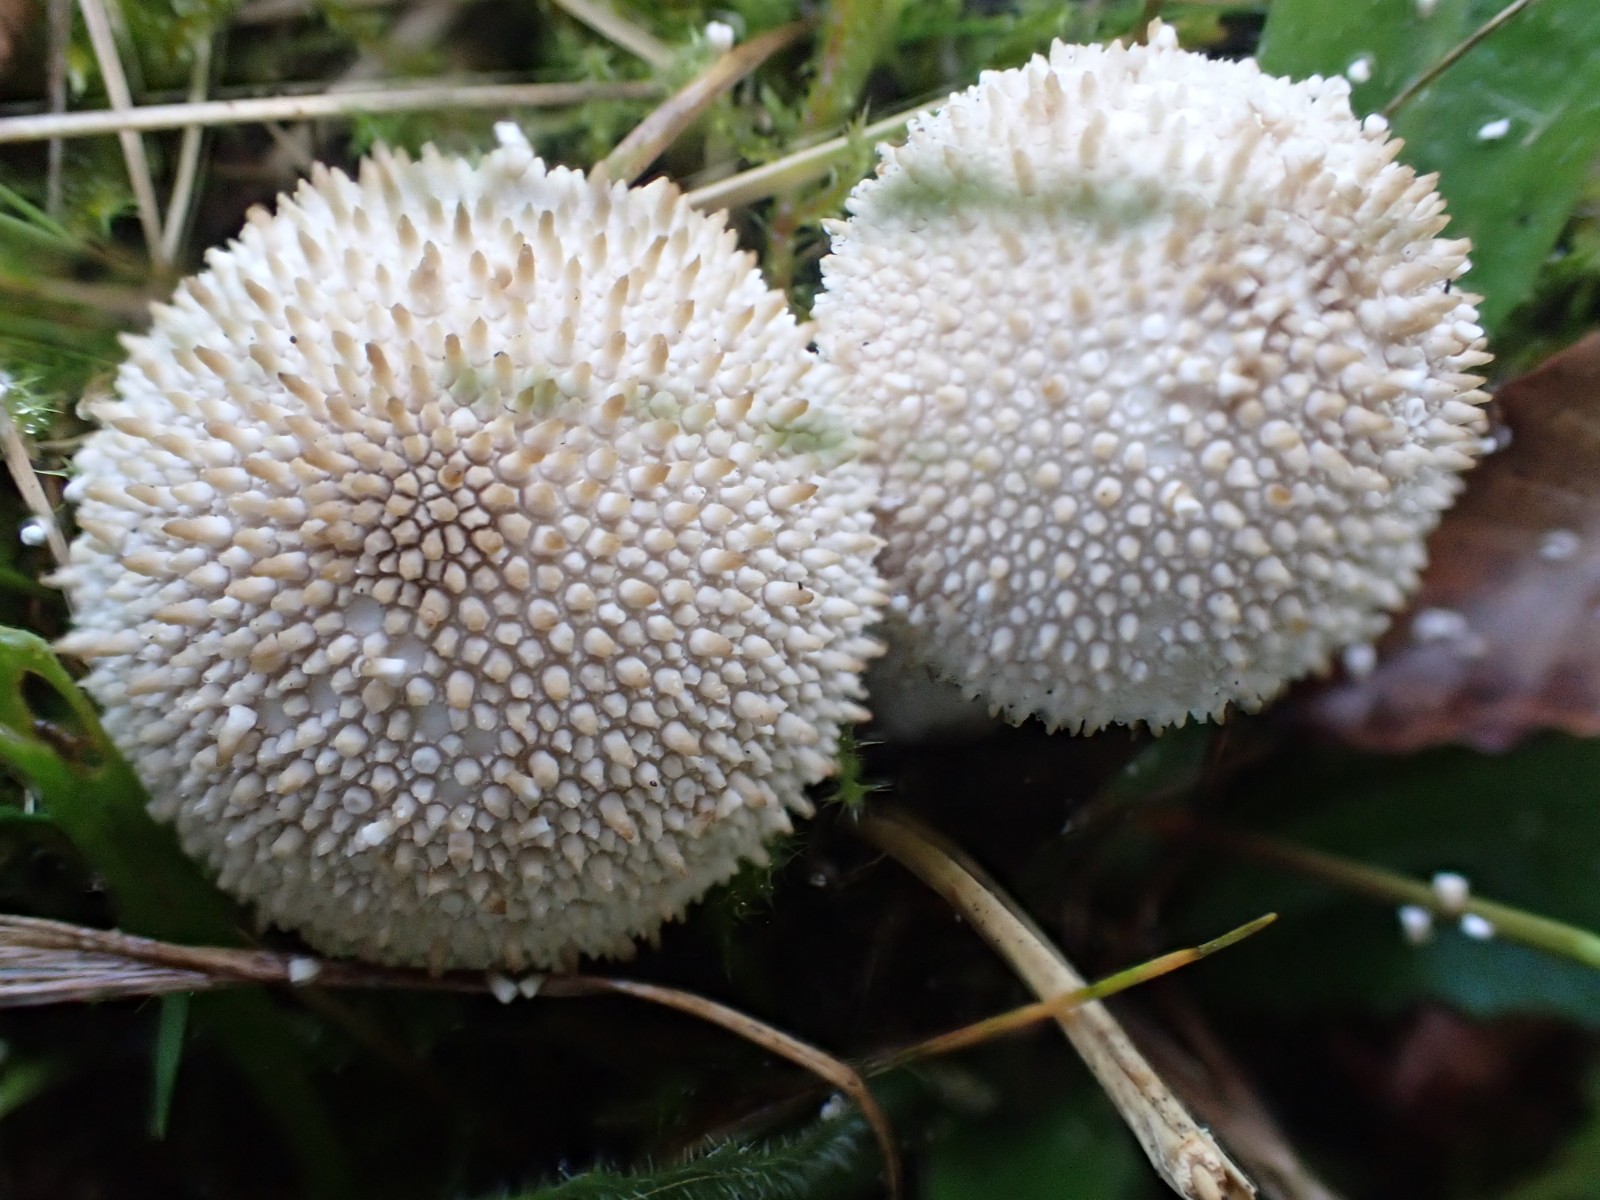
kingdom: Fungi
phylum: Basidiomycota
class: Agaricomycetes
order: Agaricales
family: Lycoperdaceae
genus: Lycoperdon
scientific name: Lycoperdon perlatum
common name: krystal-støvbold
